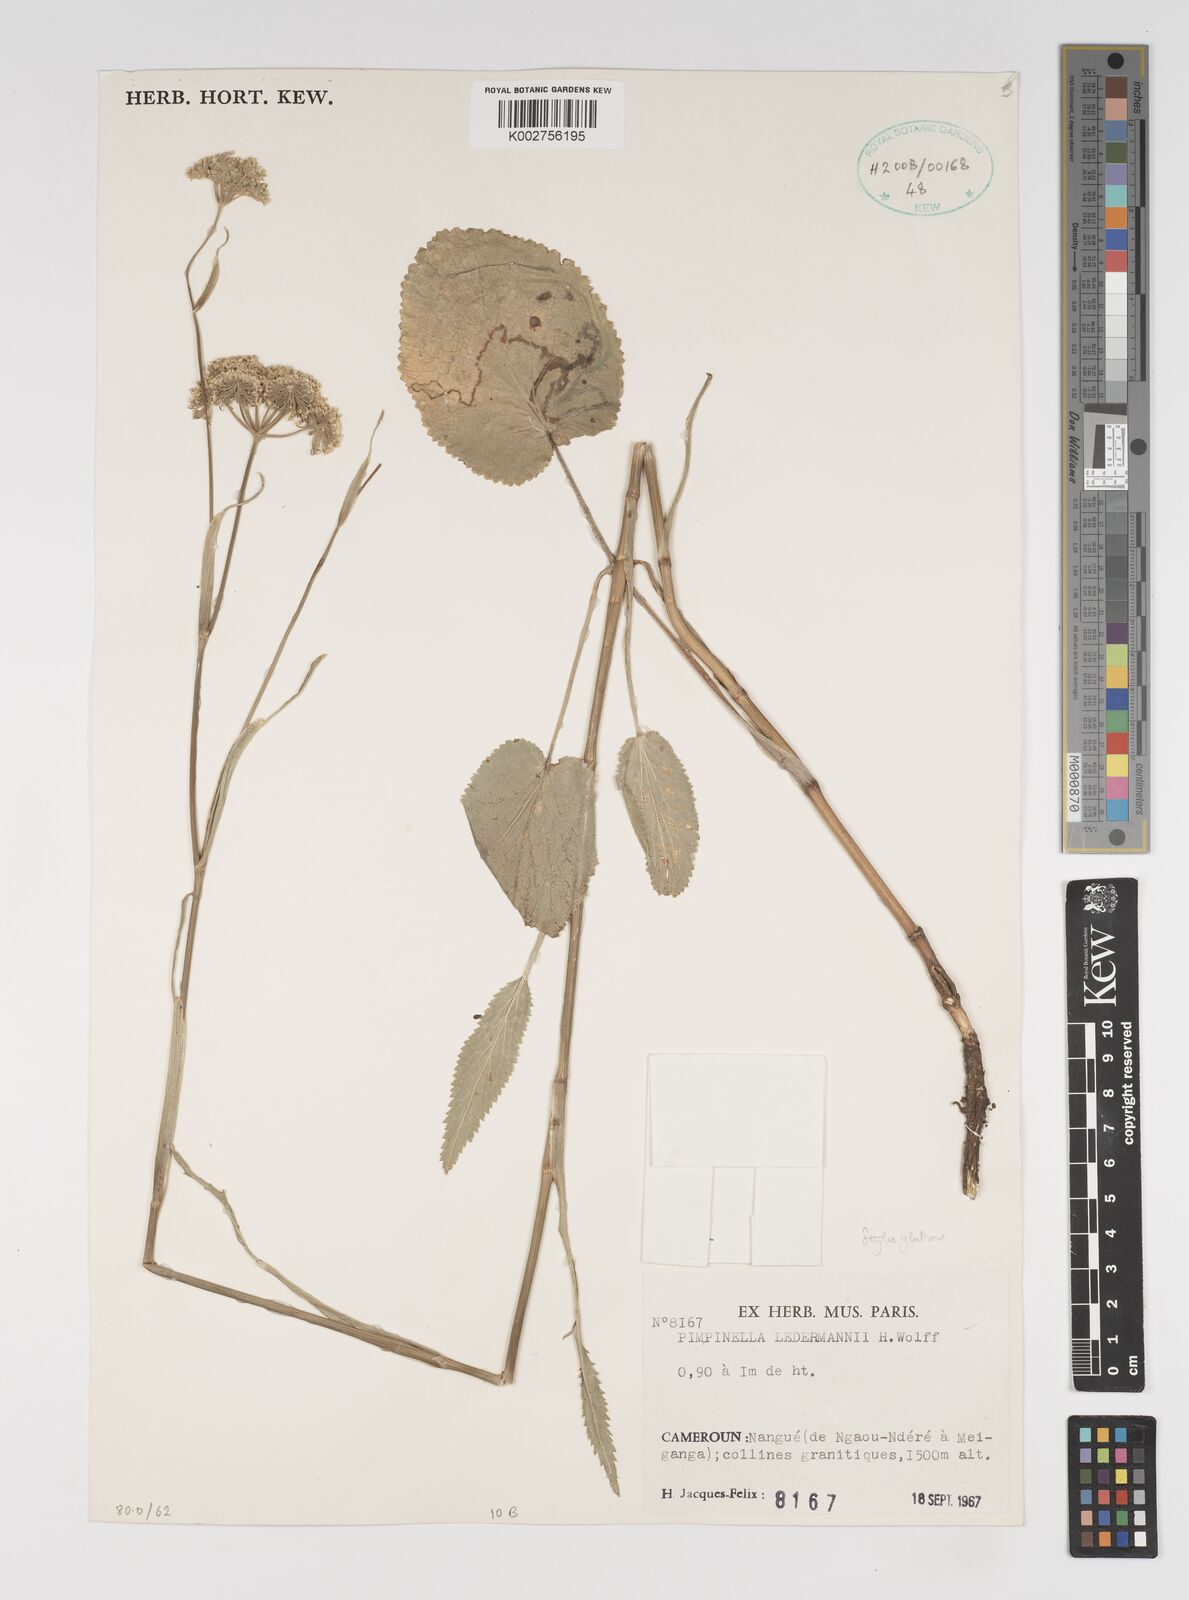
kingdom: Plantae
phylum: Tracheophyta
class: Magnoliopsida
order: Apiales
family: Apiaceae
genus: Pimpinella
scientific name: Pimpinella ledermannii
